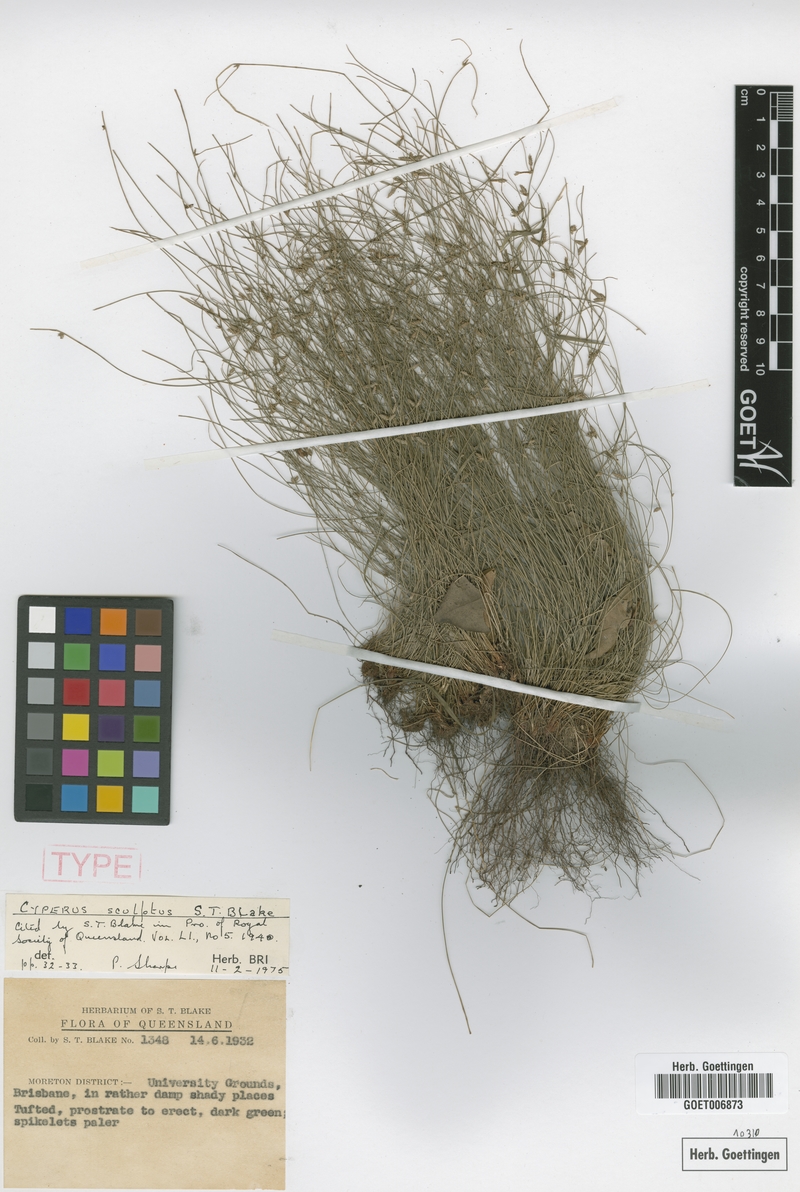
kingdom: Plantae
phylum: Tracheophyta
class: Liliopsida
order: Poales
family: Cyperaceae
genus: Cyperus
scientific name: Cyperus sculptus
